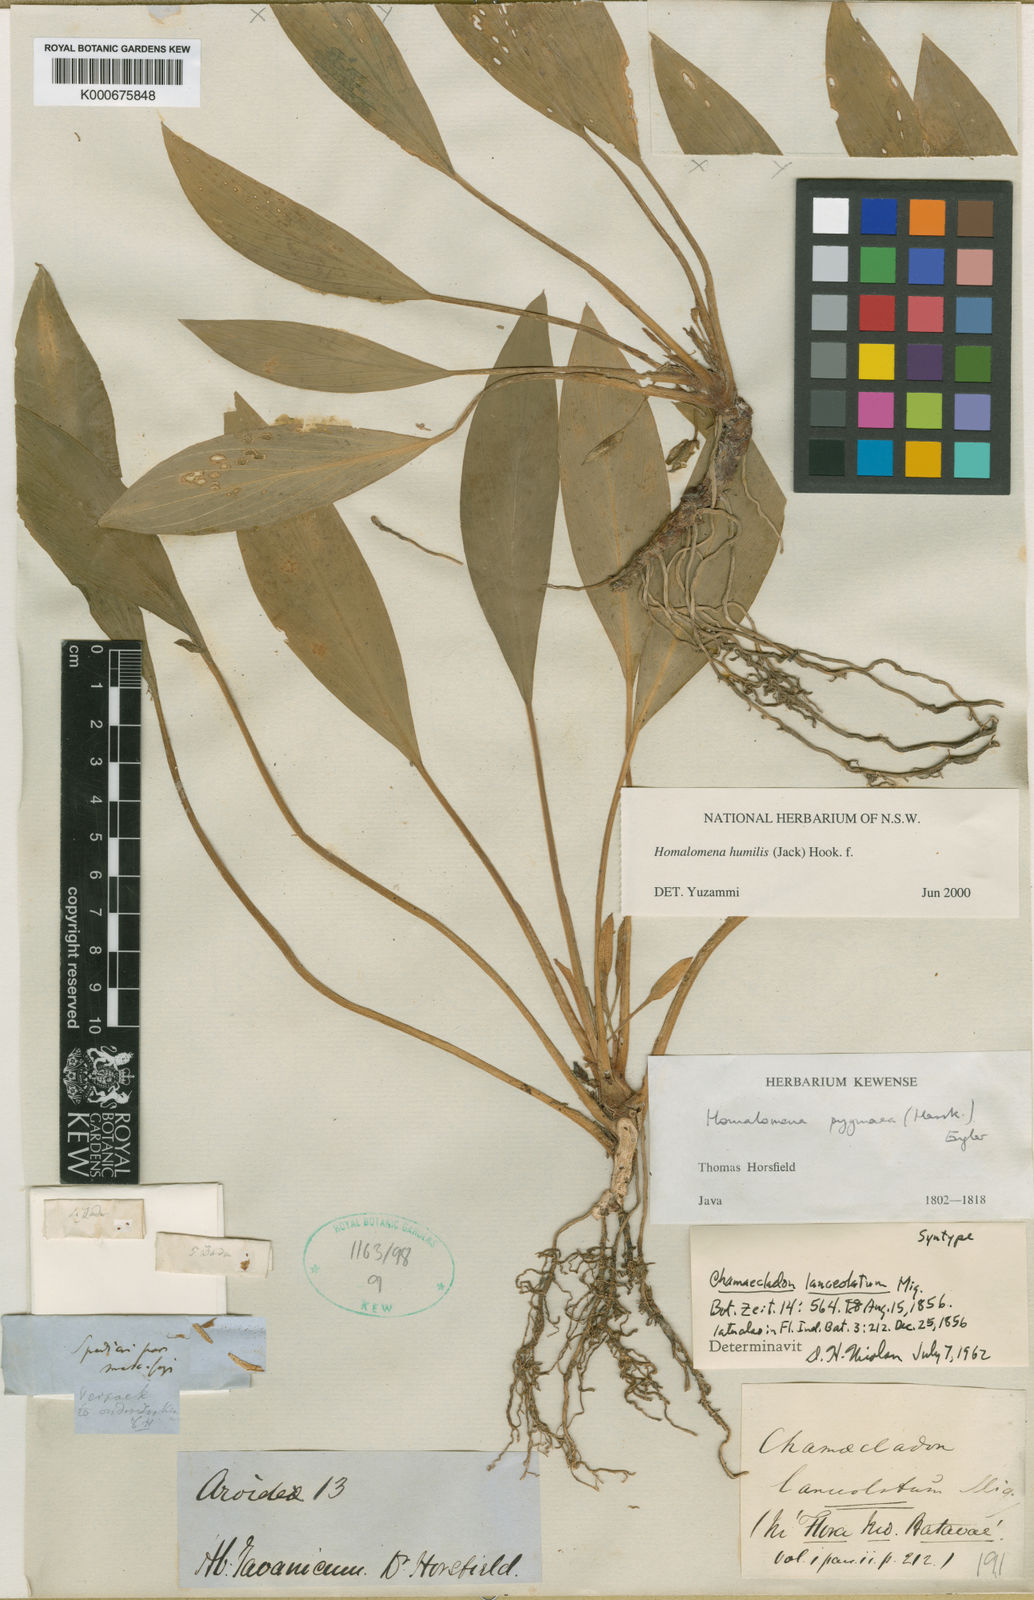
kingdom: Plantae
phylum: Tracheophyta
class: Liliopsida
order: Alismatales
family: Araceae
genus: Homalomena
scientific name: Homalomena humilis
